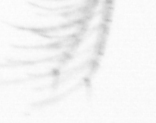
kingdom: Animalia
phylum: Arthropoda
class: Maxillopoda
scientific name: Maxillopoda
